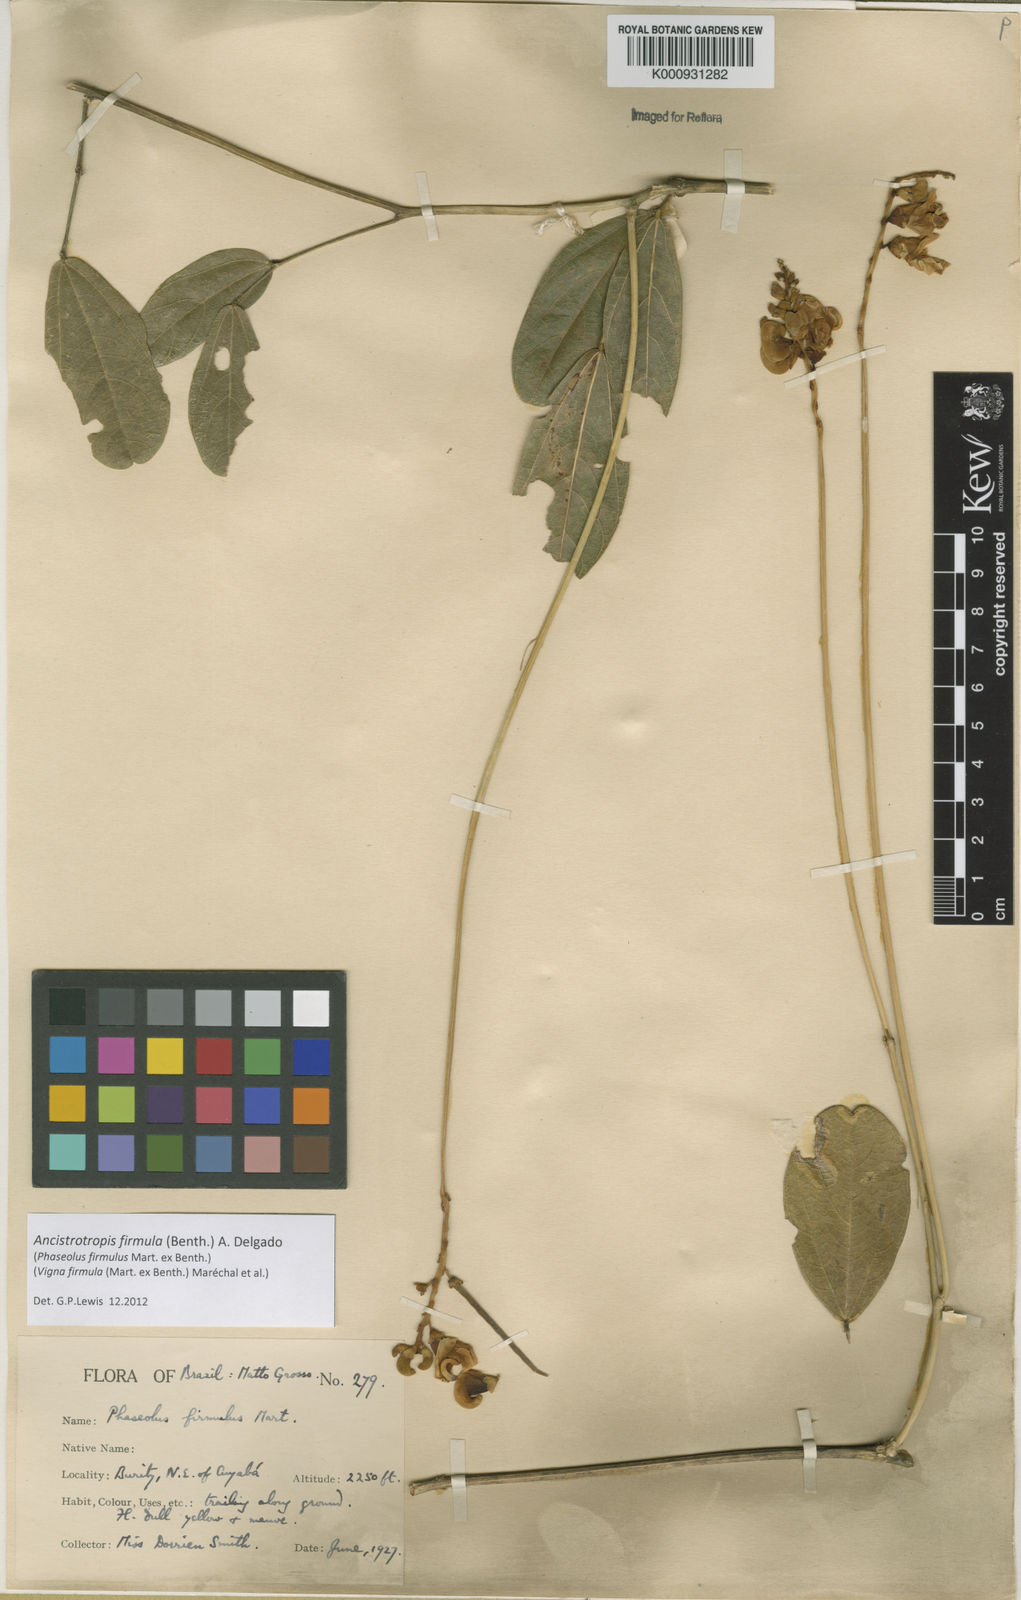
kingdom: Plantae
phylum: Tracheophyta
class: Magnoliopsida
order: Fabales
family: Fabaceae
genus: Ancistrotropis
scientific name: Ancistrotropis firmula
